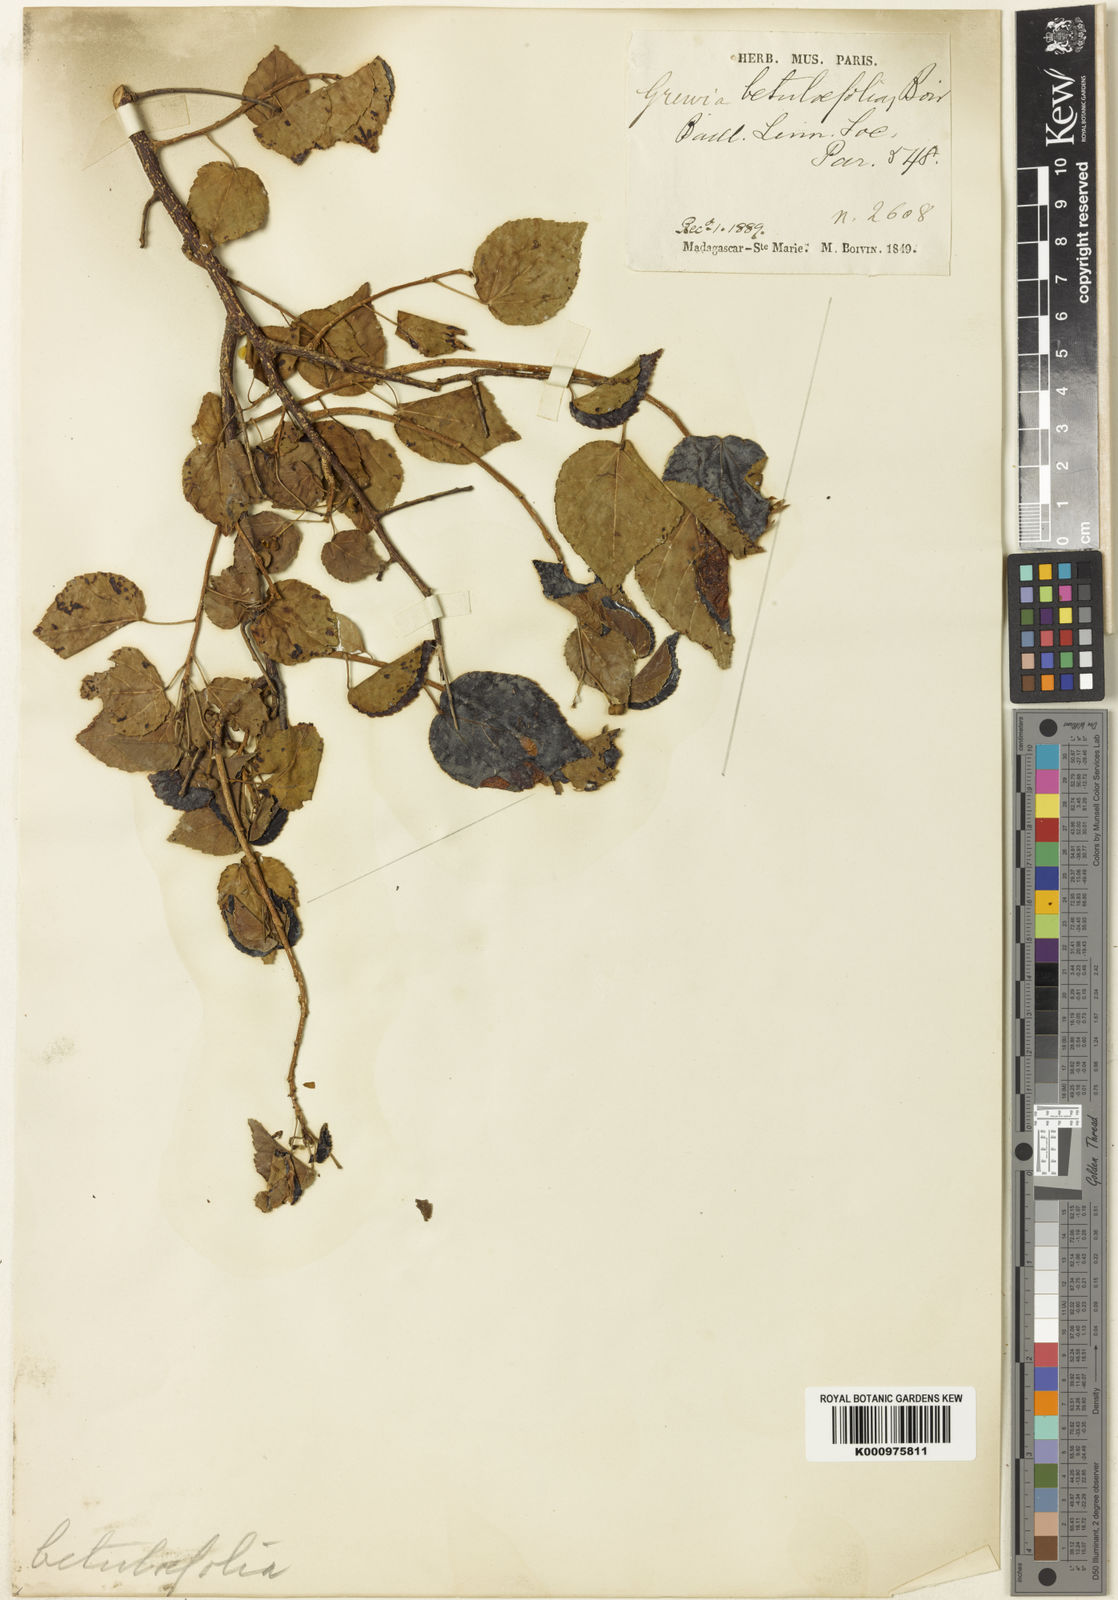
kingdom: Plantae
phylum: Tracheophyta
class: Magnoliopsida
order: Malvales
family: Malvaceae
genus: Grewia
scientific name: Grewia picta
